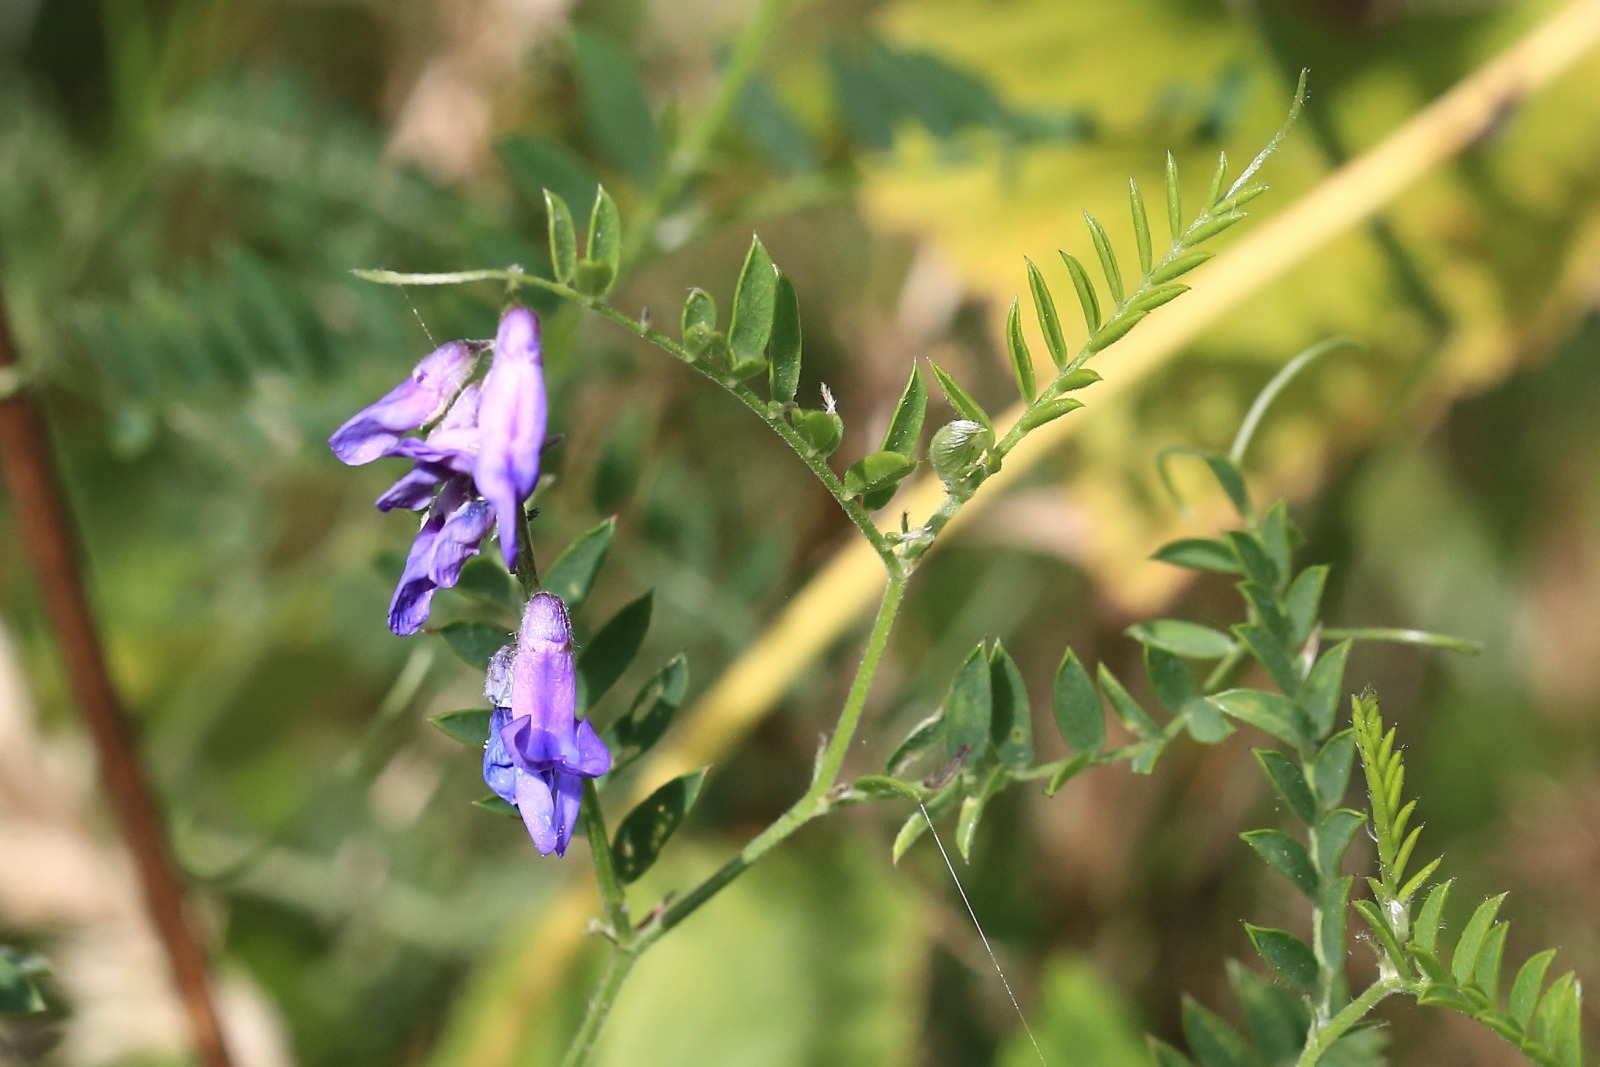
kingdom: Plantae
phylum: Tracheophyta
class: Magnoliopsida
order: Fabales
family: Fabaceae
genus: Vicia
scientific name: Vicia cracca
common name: Muse-vikke
